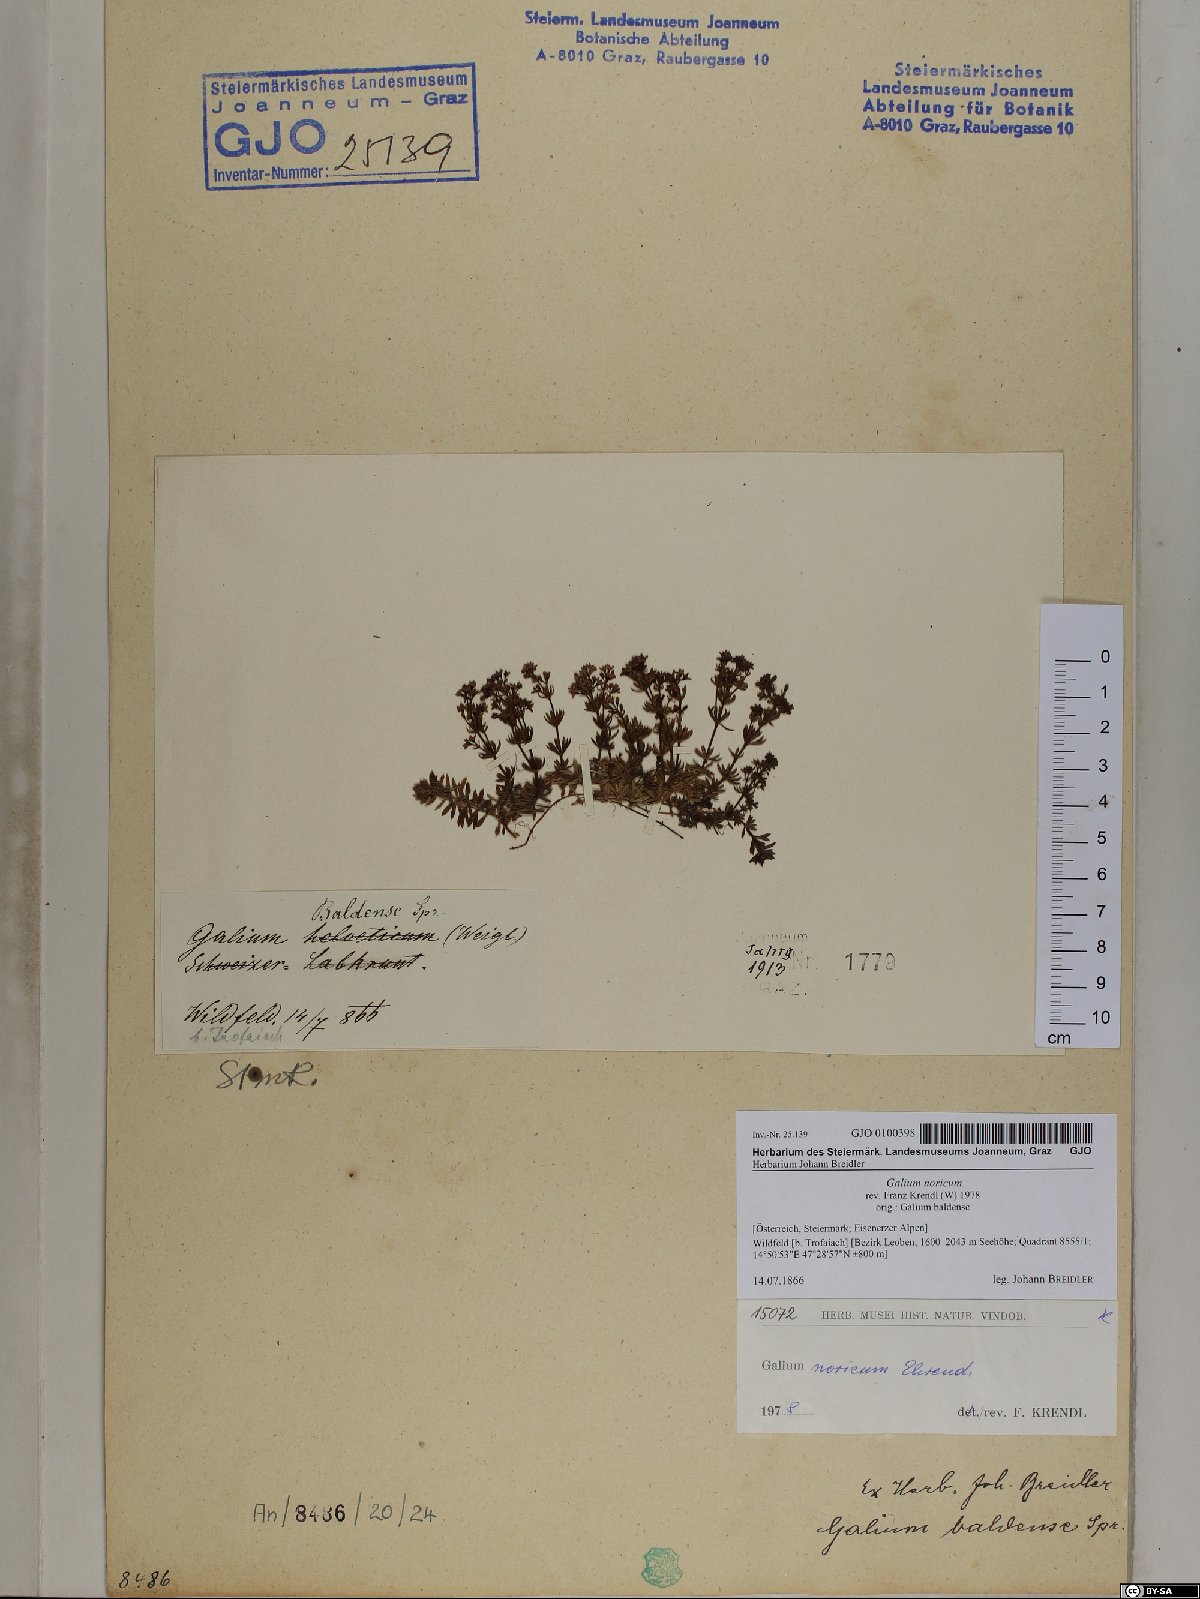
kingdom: Plantae
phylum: Tracheophyta
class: Magnoliopsida
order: Gentianales
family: Rubiaceae
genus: Galium
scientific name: Galium noricum
